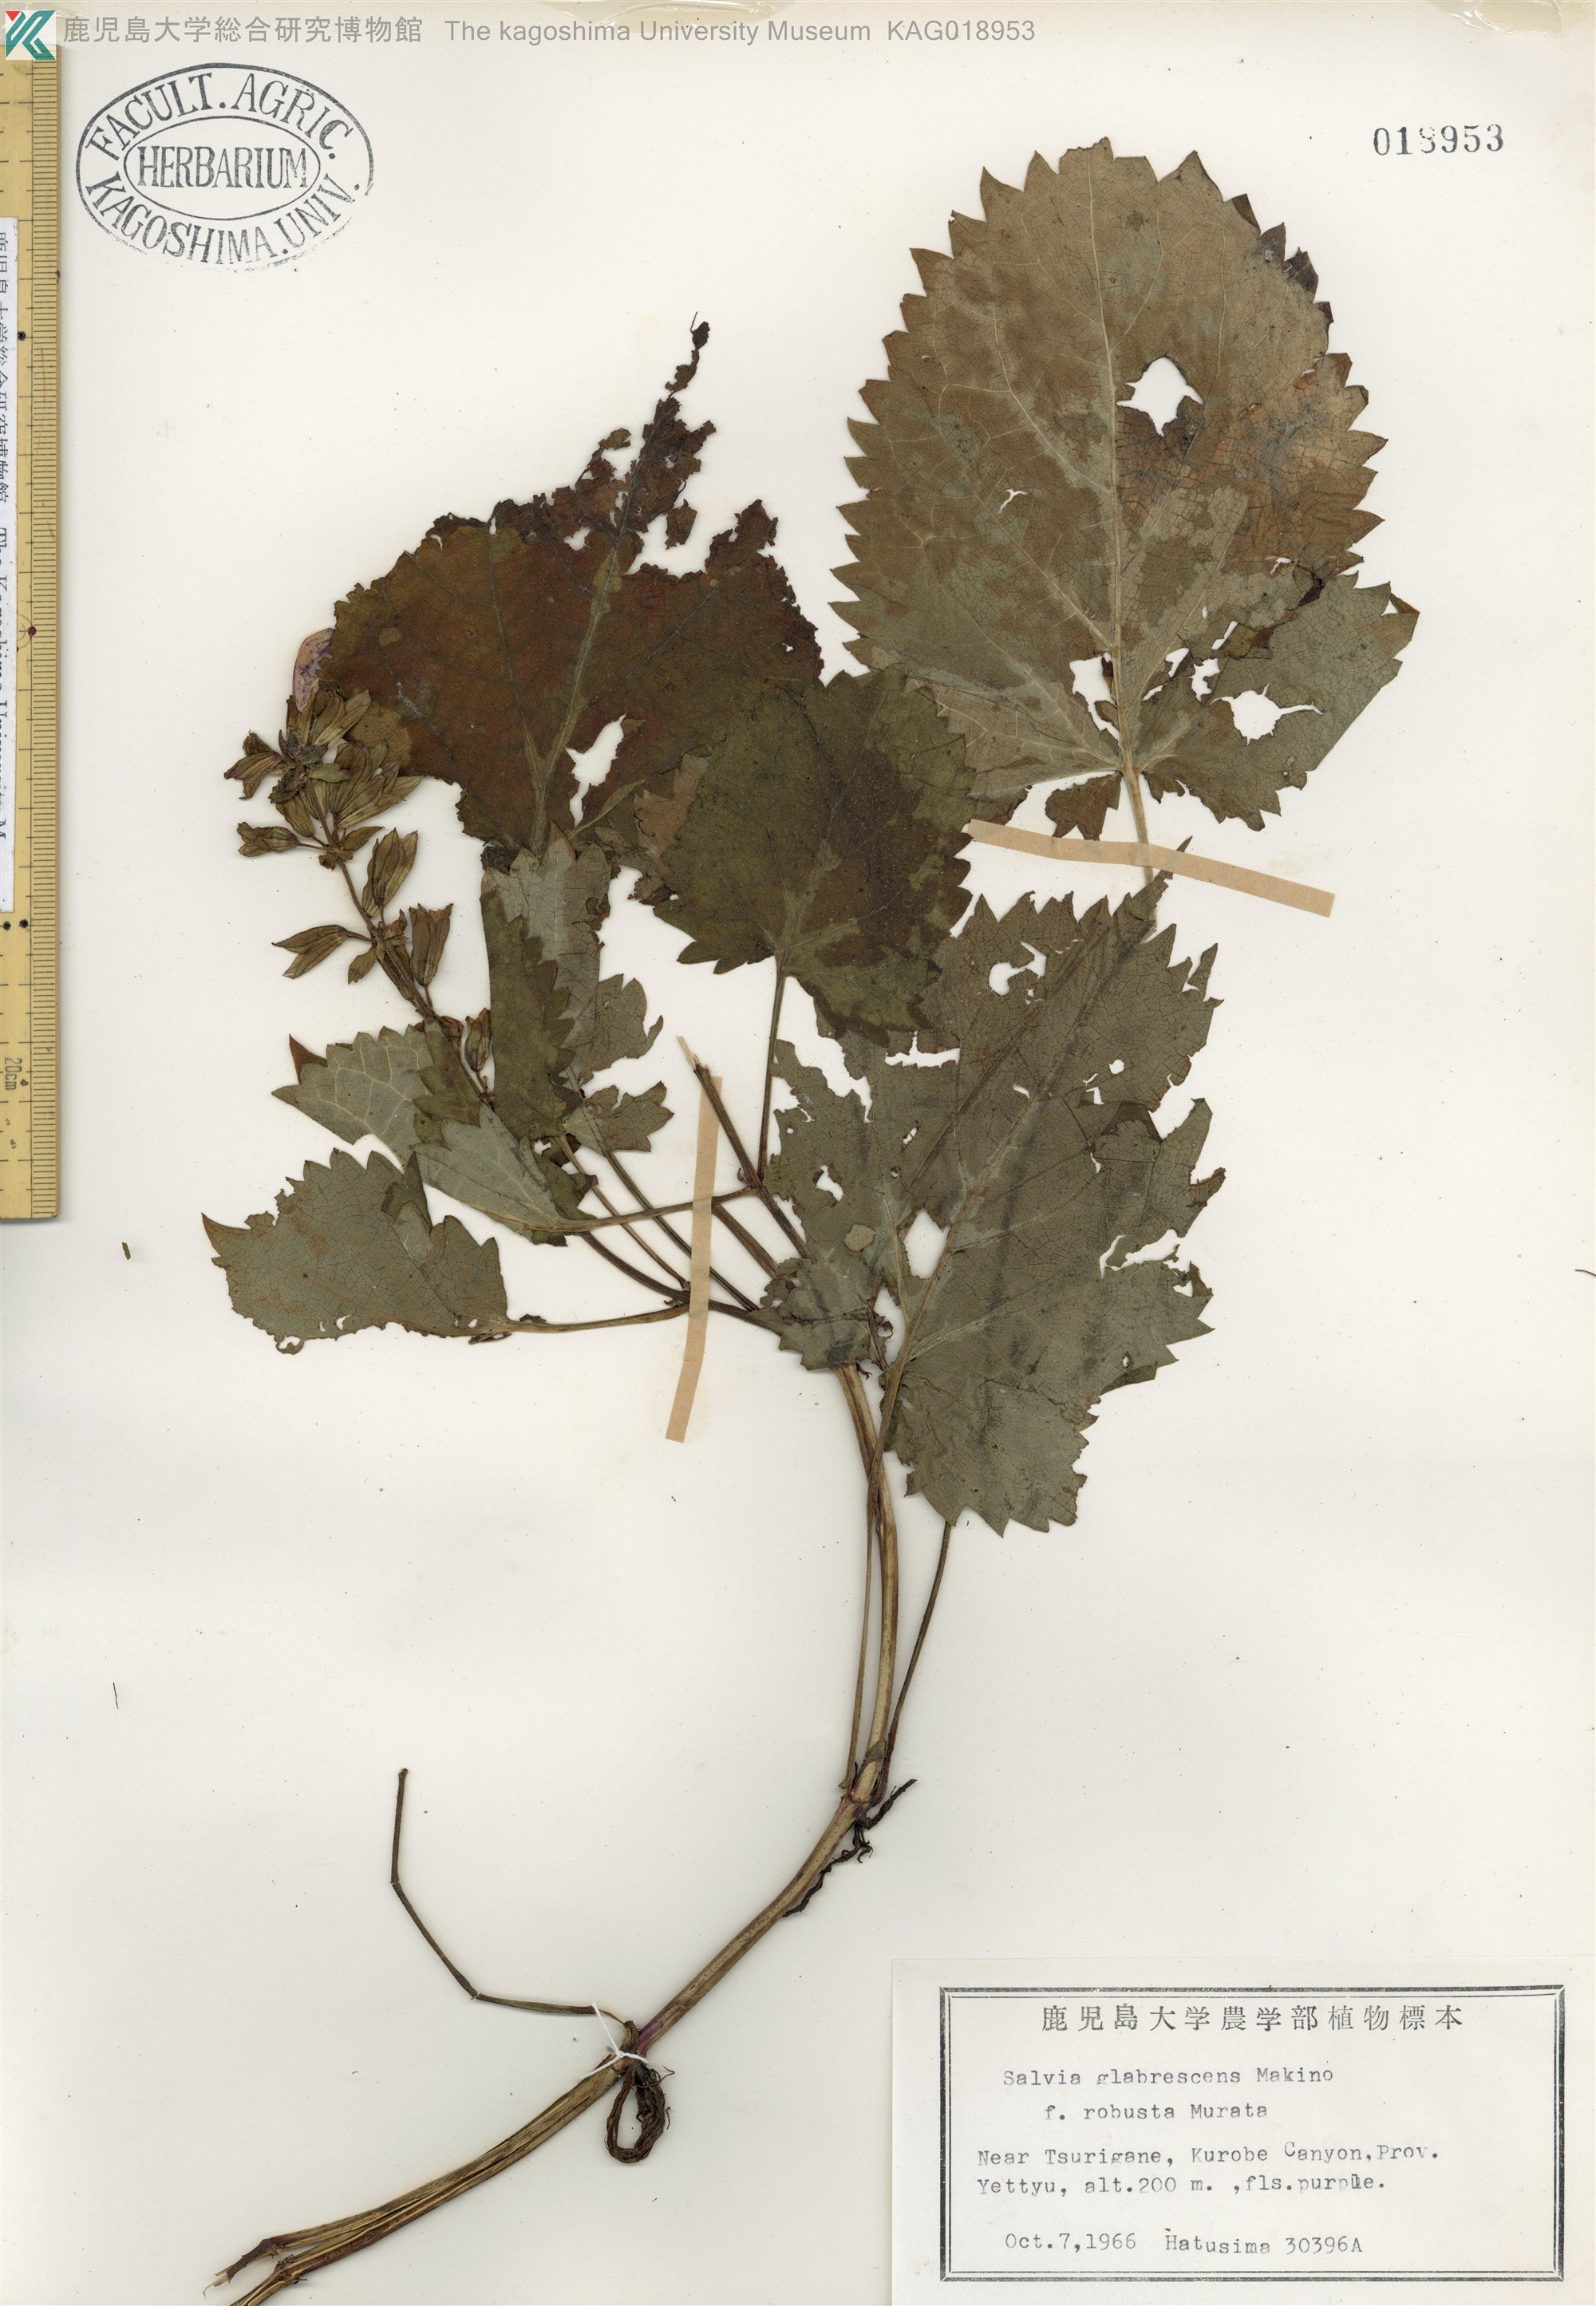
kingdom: Plantae
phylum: Tracheophyta
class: Magnoliopsida
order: Lamiales
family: Lamiaceae
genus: Salvia
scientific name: Salvia glabrescens
